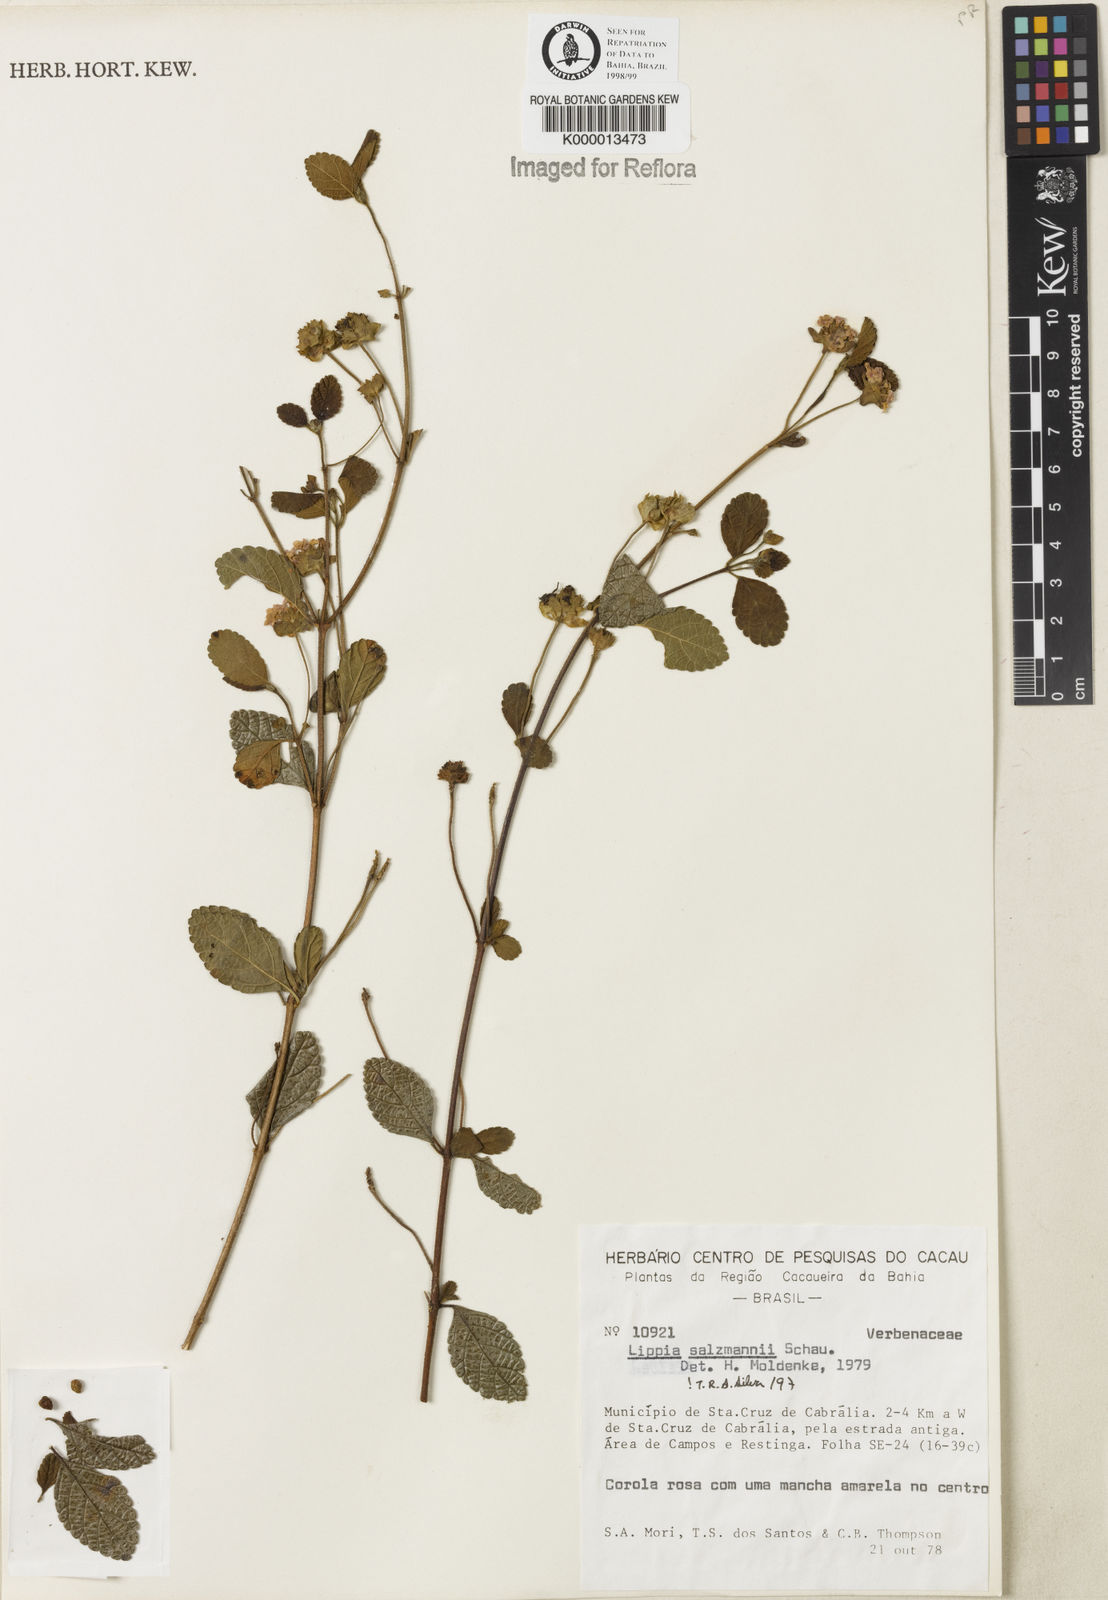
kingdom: Plantae
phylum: Tracheophyta
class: Magnoliopsida
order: Lamiales
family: Verbenaceae
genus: Lantana
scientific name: Lantana salzmannii
